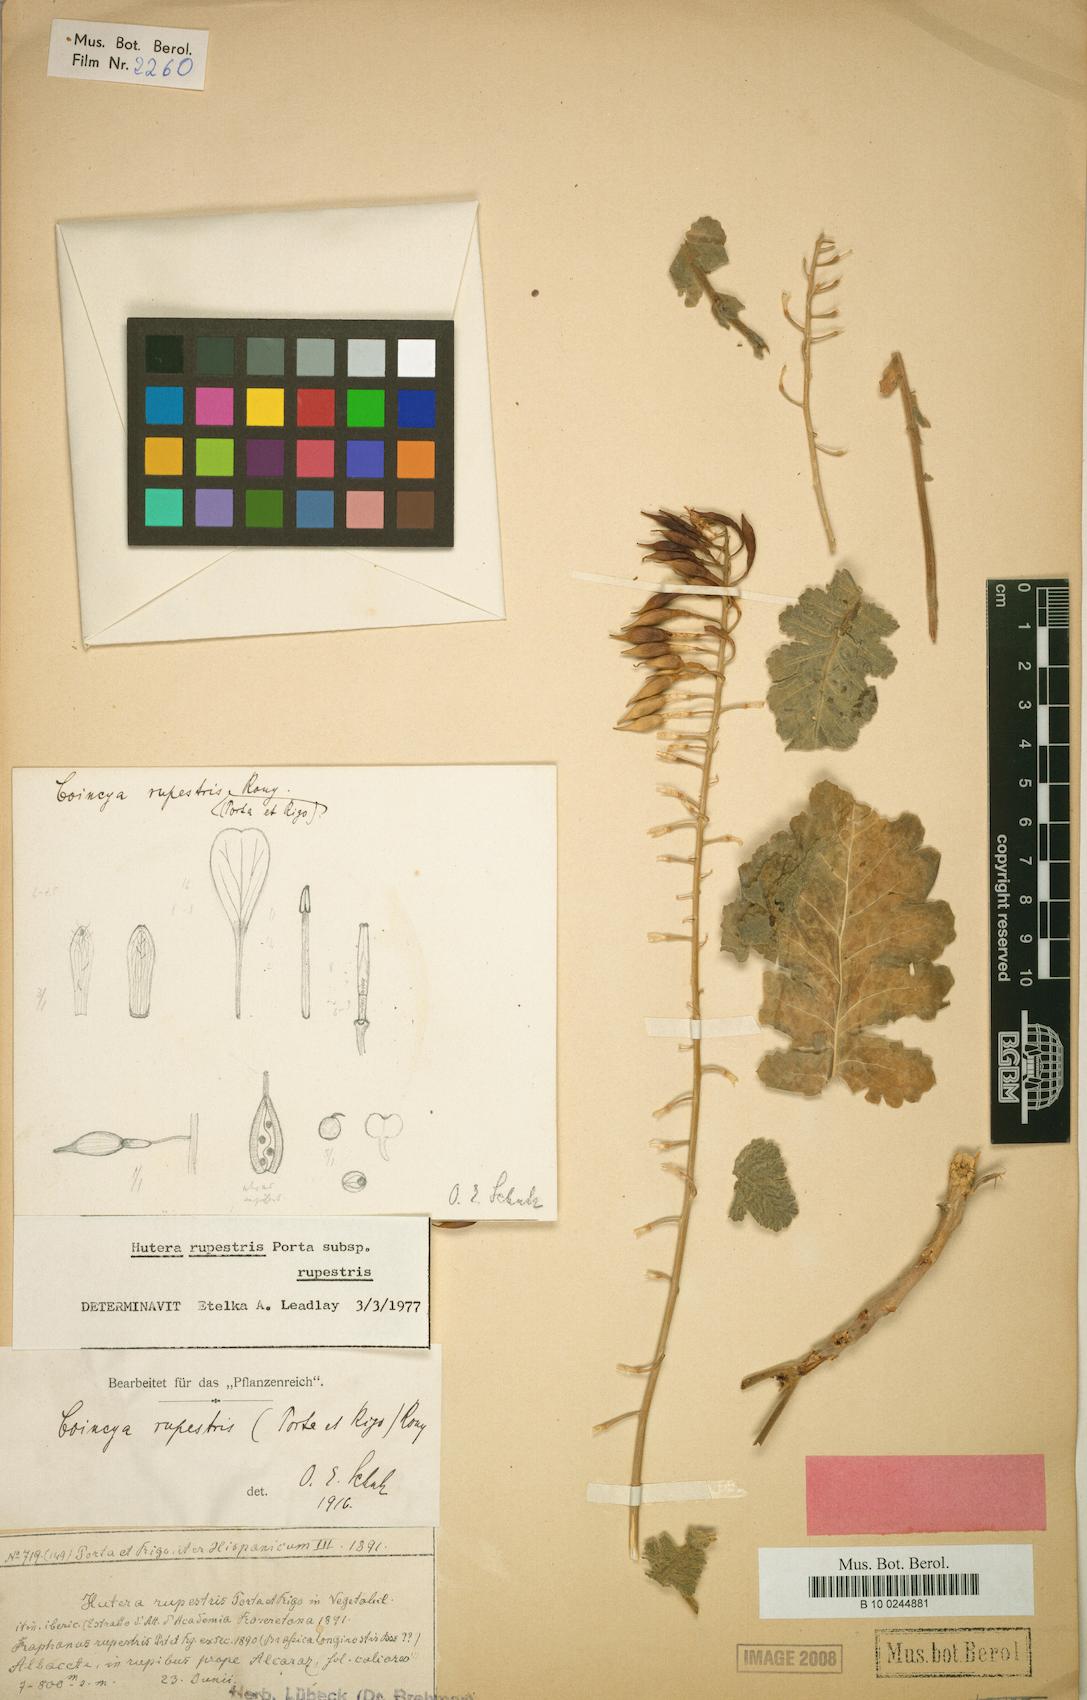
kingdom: Plantae
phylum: Tracheophyta
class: Magnoliopsida
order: Brassicales
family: Brassicaceae
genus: Coincya
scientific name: Coincya rupestris
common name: Conicy's rock cabbage
